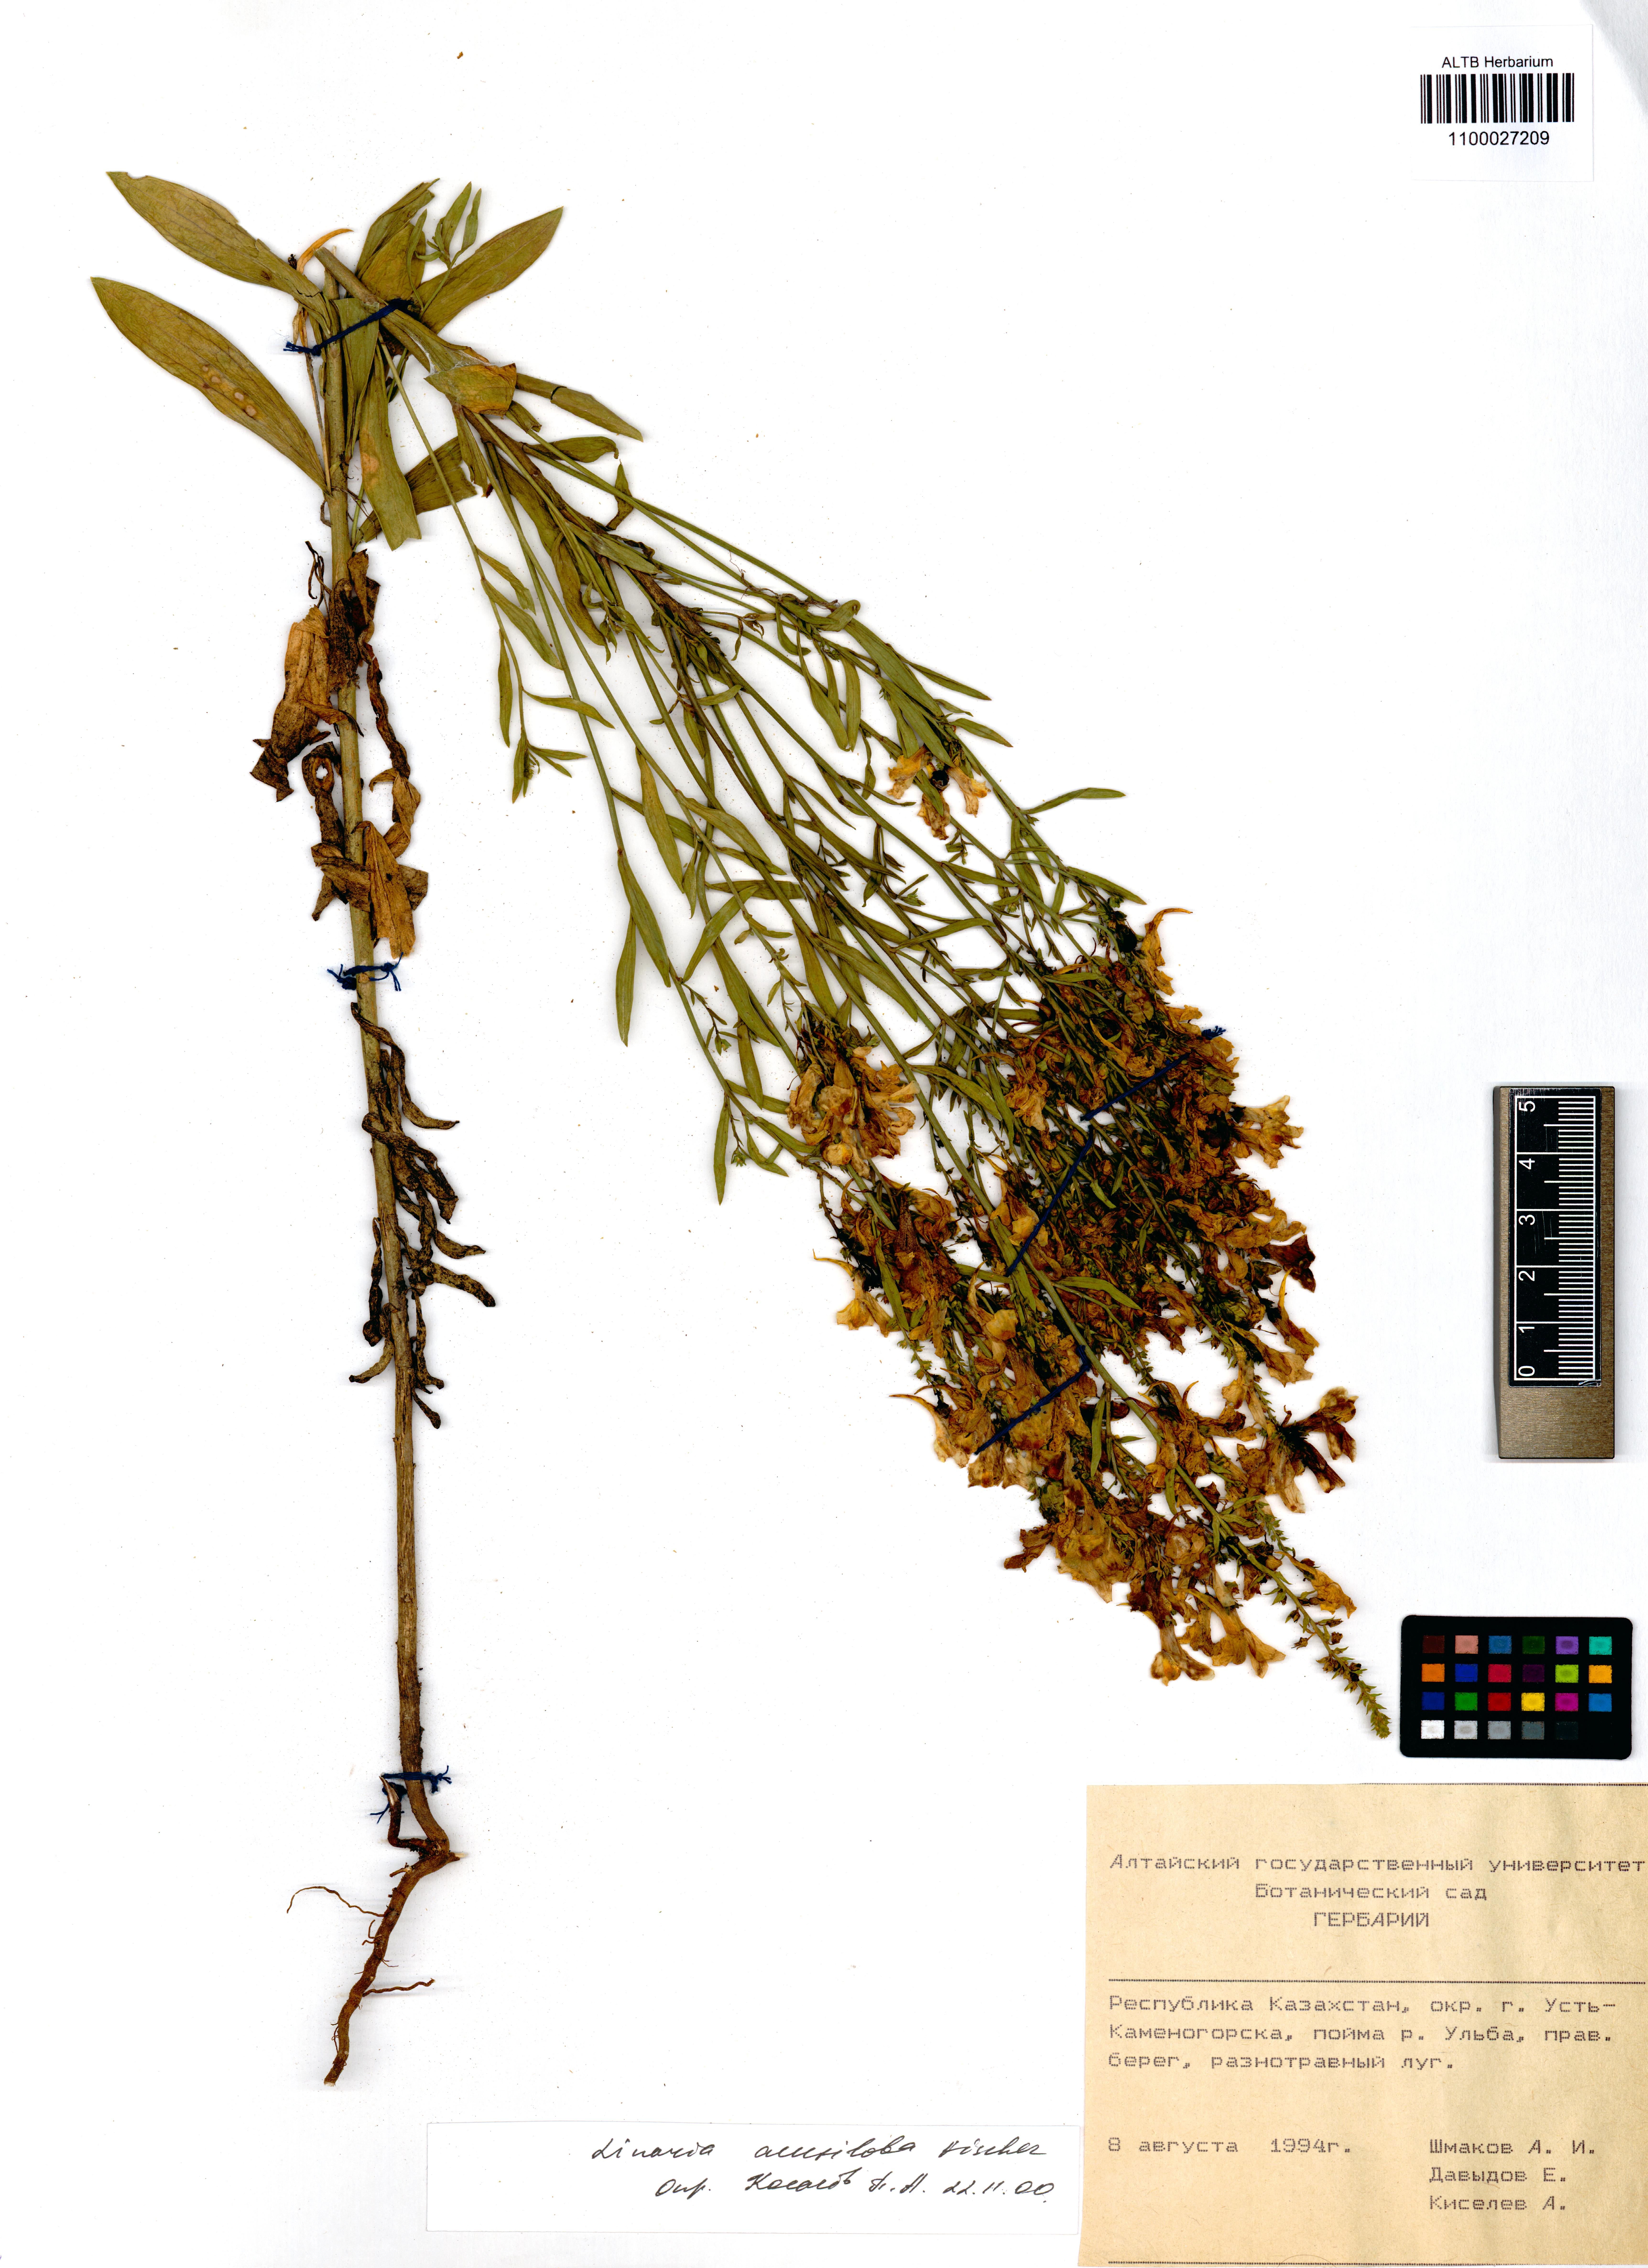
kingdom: Plantae
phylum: Tracheophyta
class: Magnoliopsida
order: Lamiales
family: Plantaginaceae
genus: Linaria
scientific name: Linaria acutiloba
